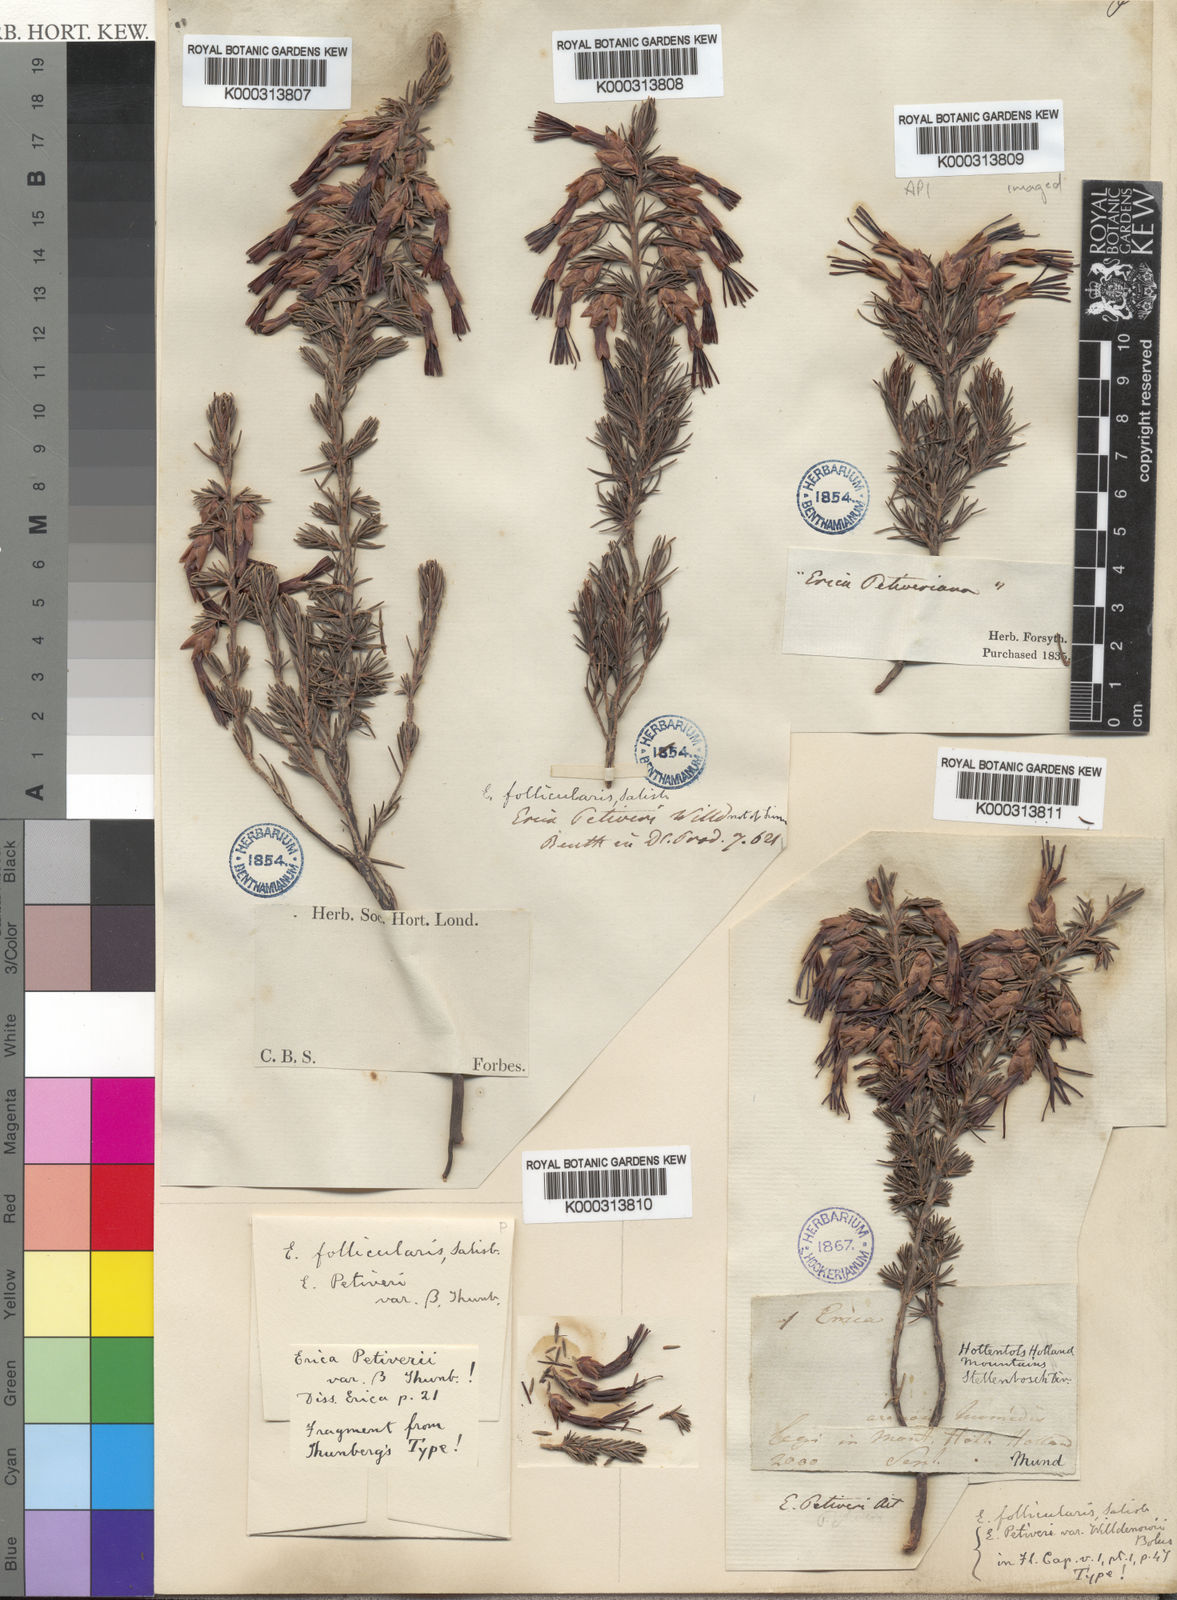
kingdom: Plantae
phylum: Tracheophyta
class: Magnoliopsida
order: Ericales
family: Ericaceae
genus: Erica
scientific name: Erica coccinea
